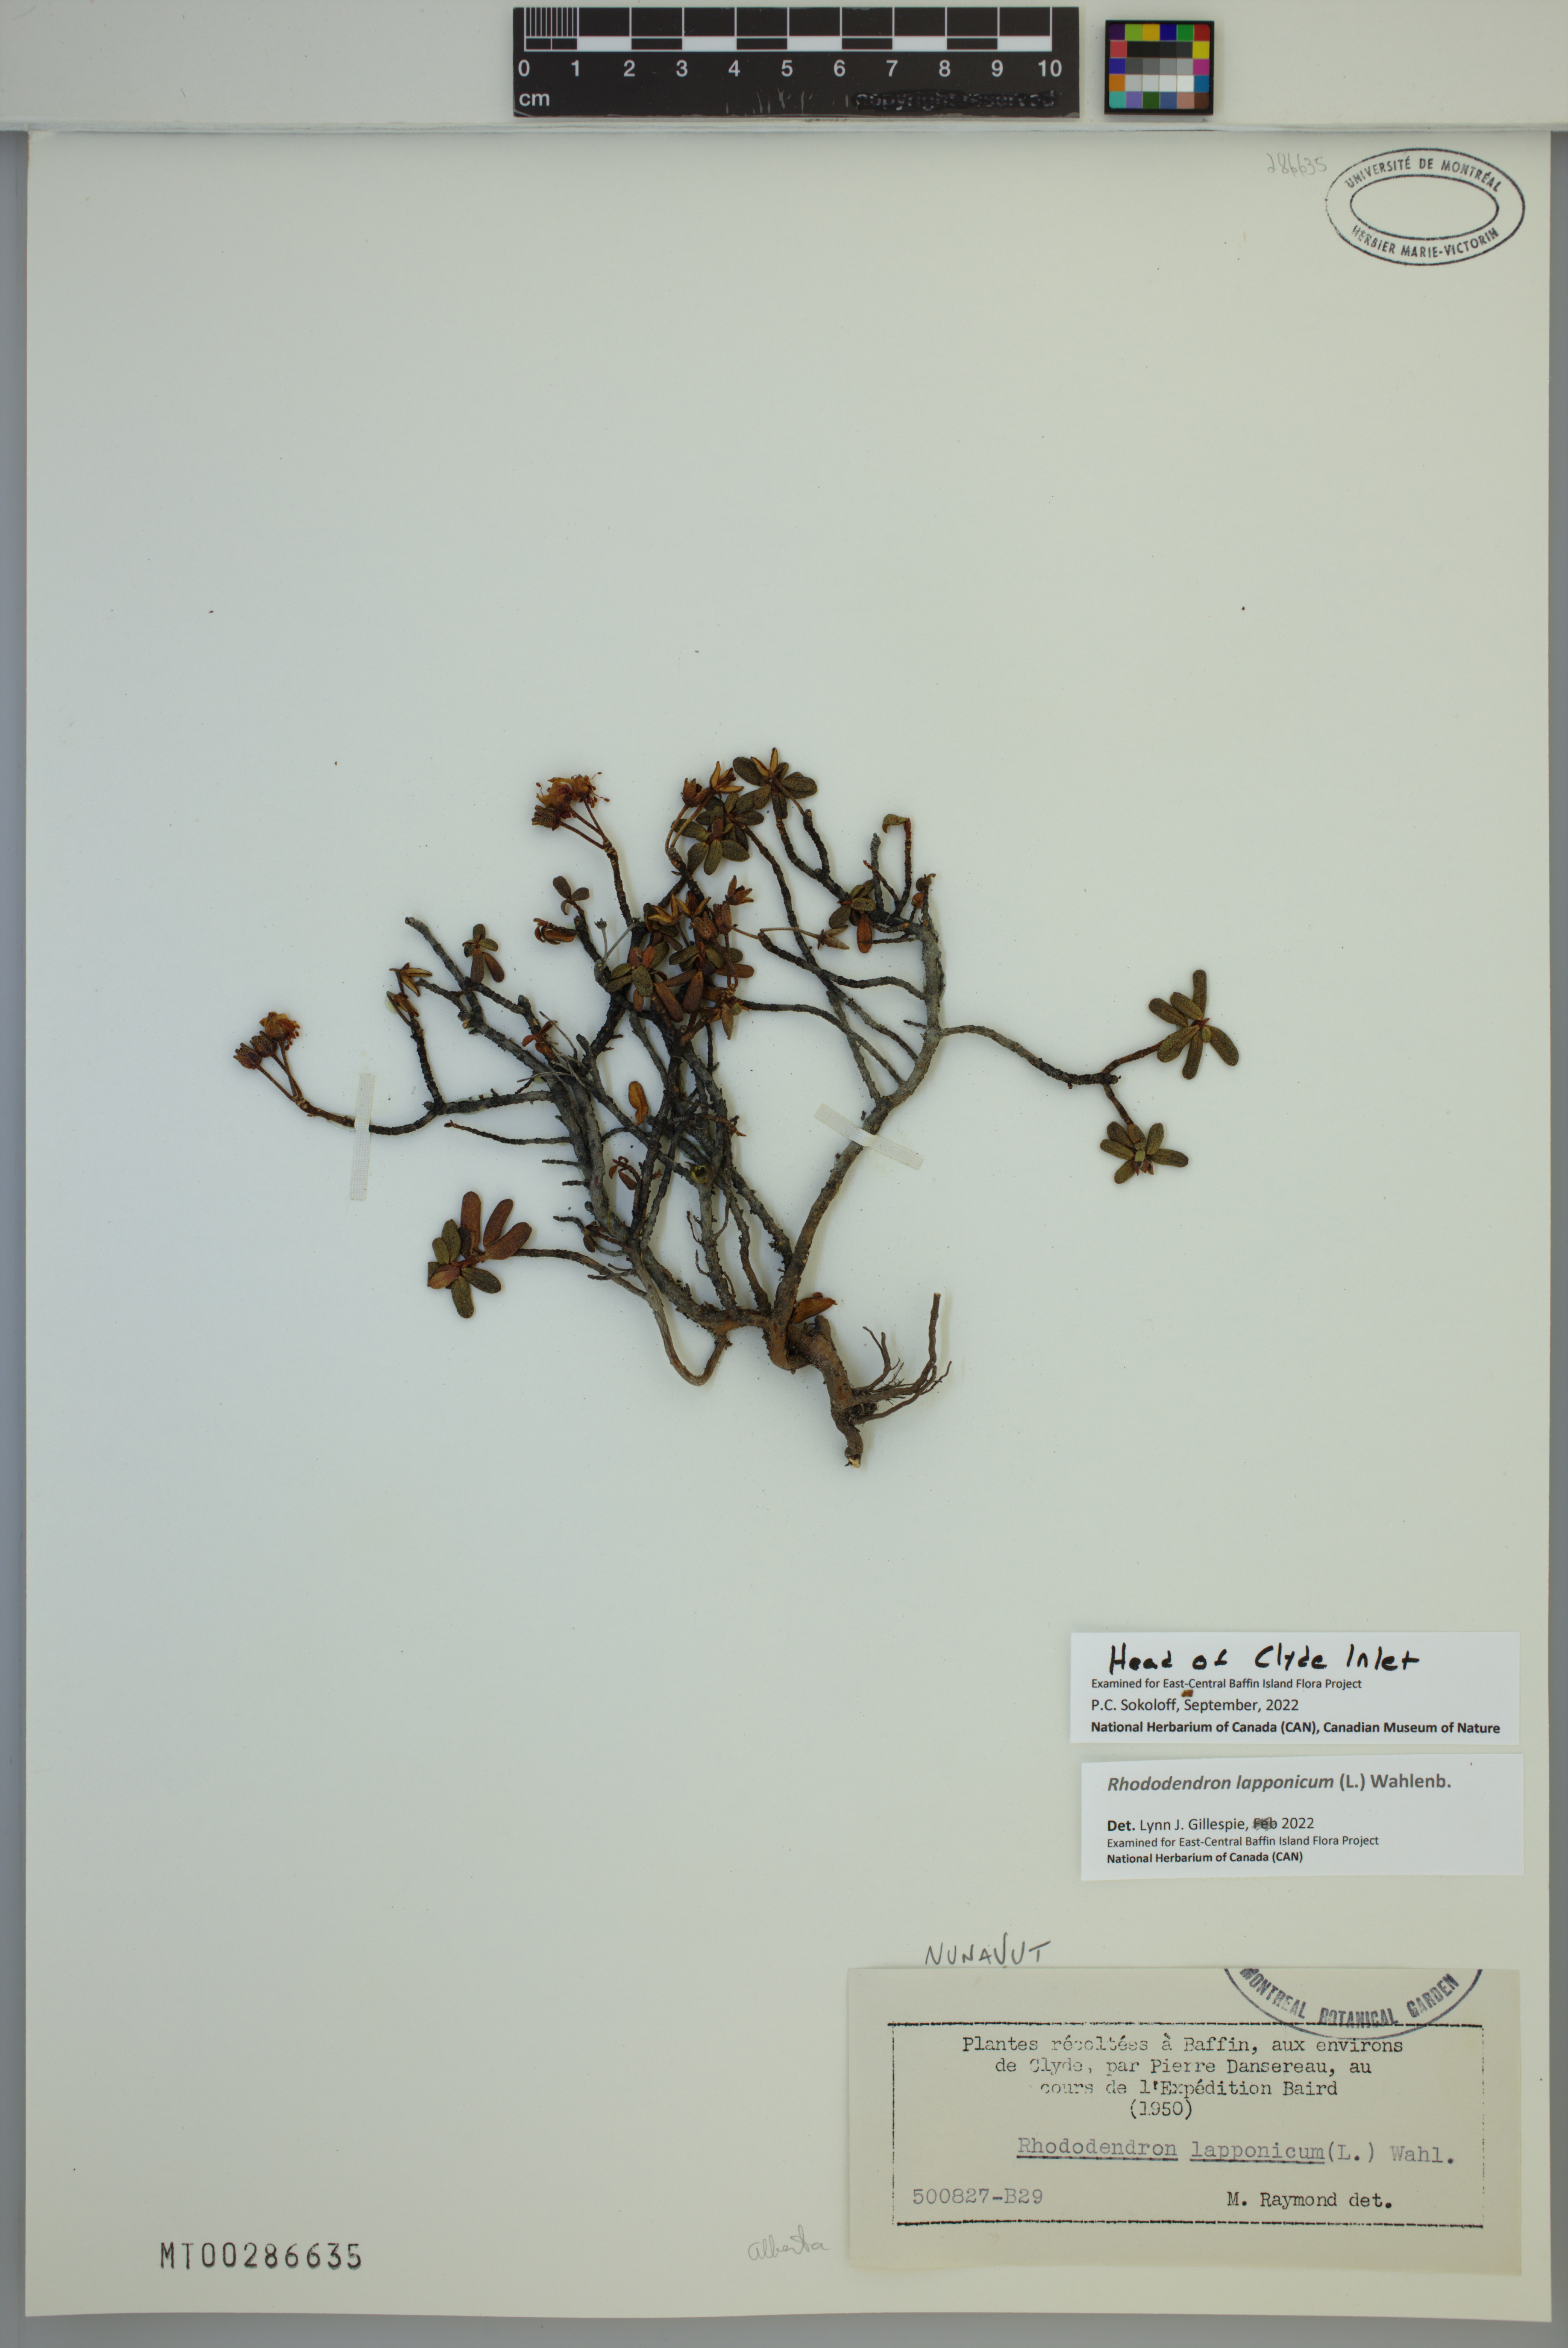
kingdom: Plantae
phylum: Tracheophyta
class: Magnoliopsida
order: Ericales
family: Ericaceae
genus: Rhododendron
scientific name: Rhododendron lapponicum
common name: Lapland rhododendron
